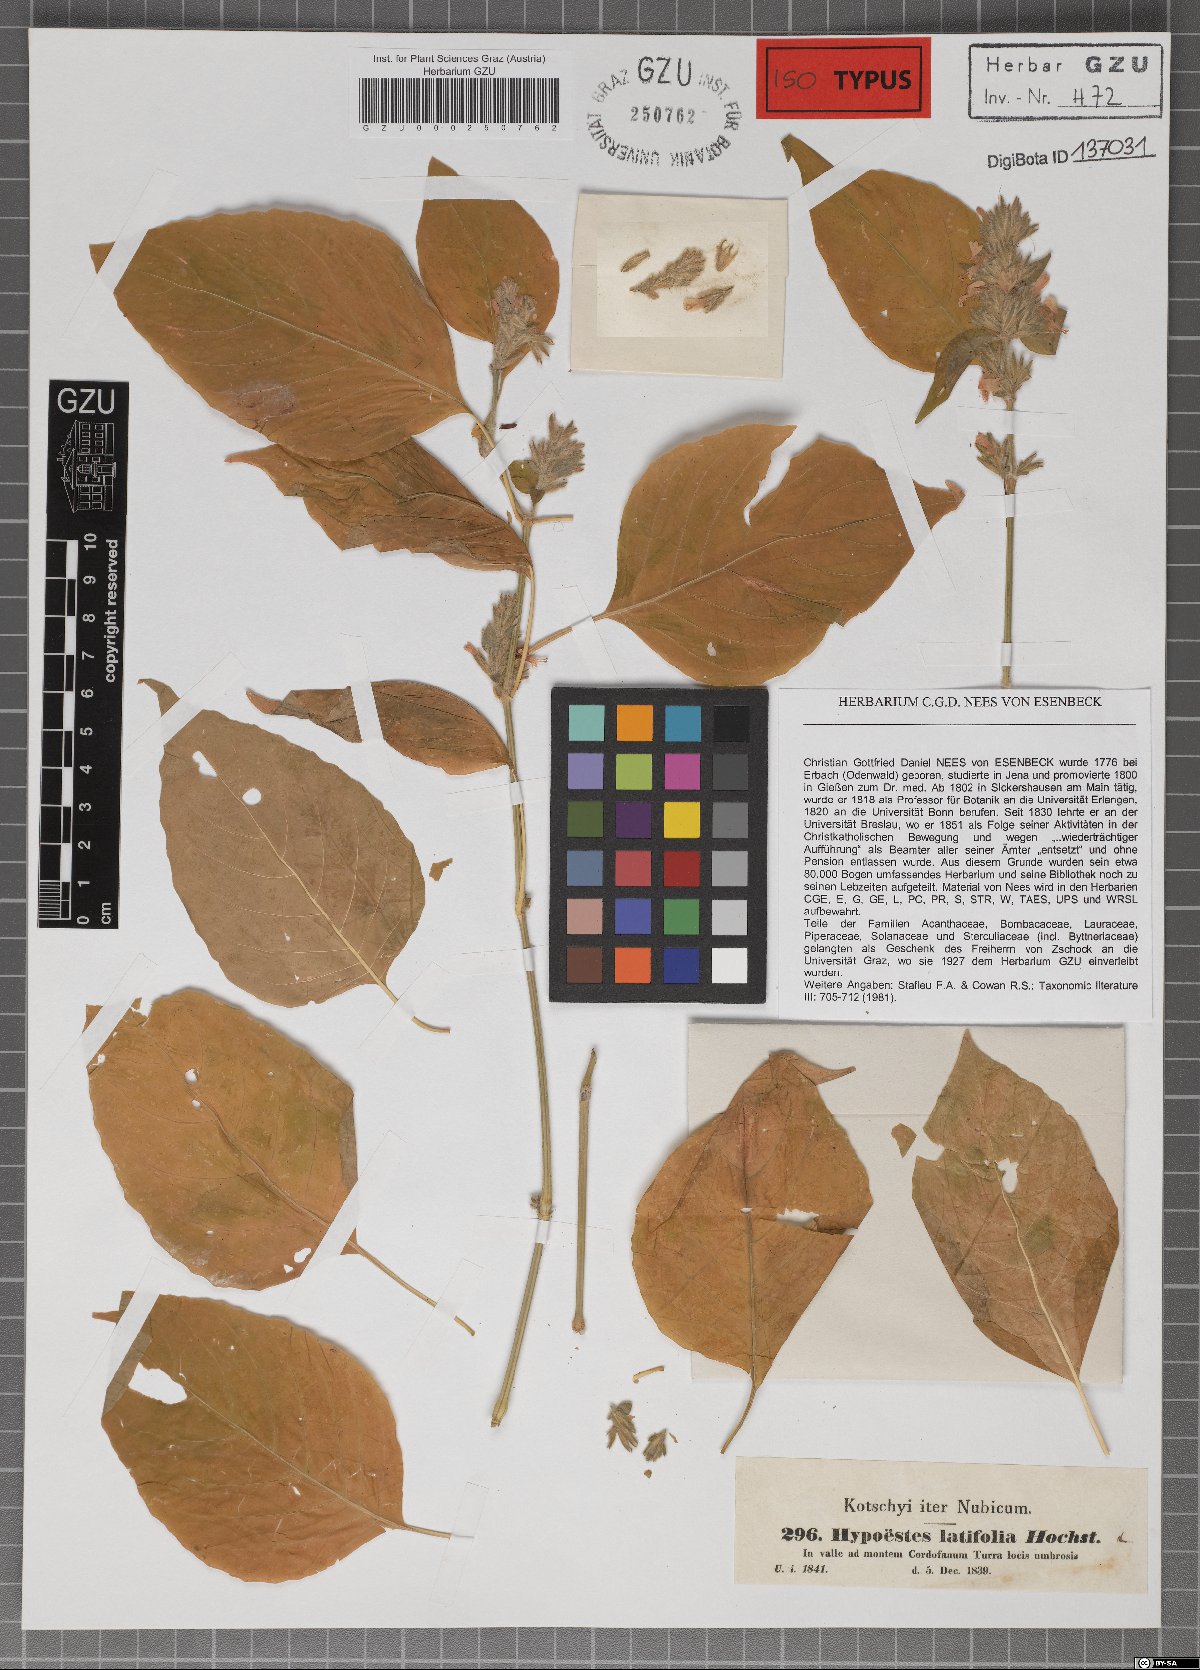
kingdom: Plantae
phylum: Tracheophyta
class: Magnoliopsida
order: Lamiales
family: Acanthaceae
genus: Hypoestes
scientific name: Hypoestes forskaolii
